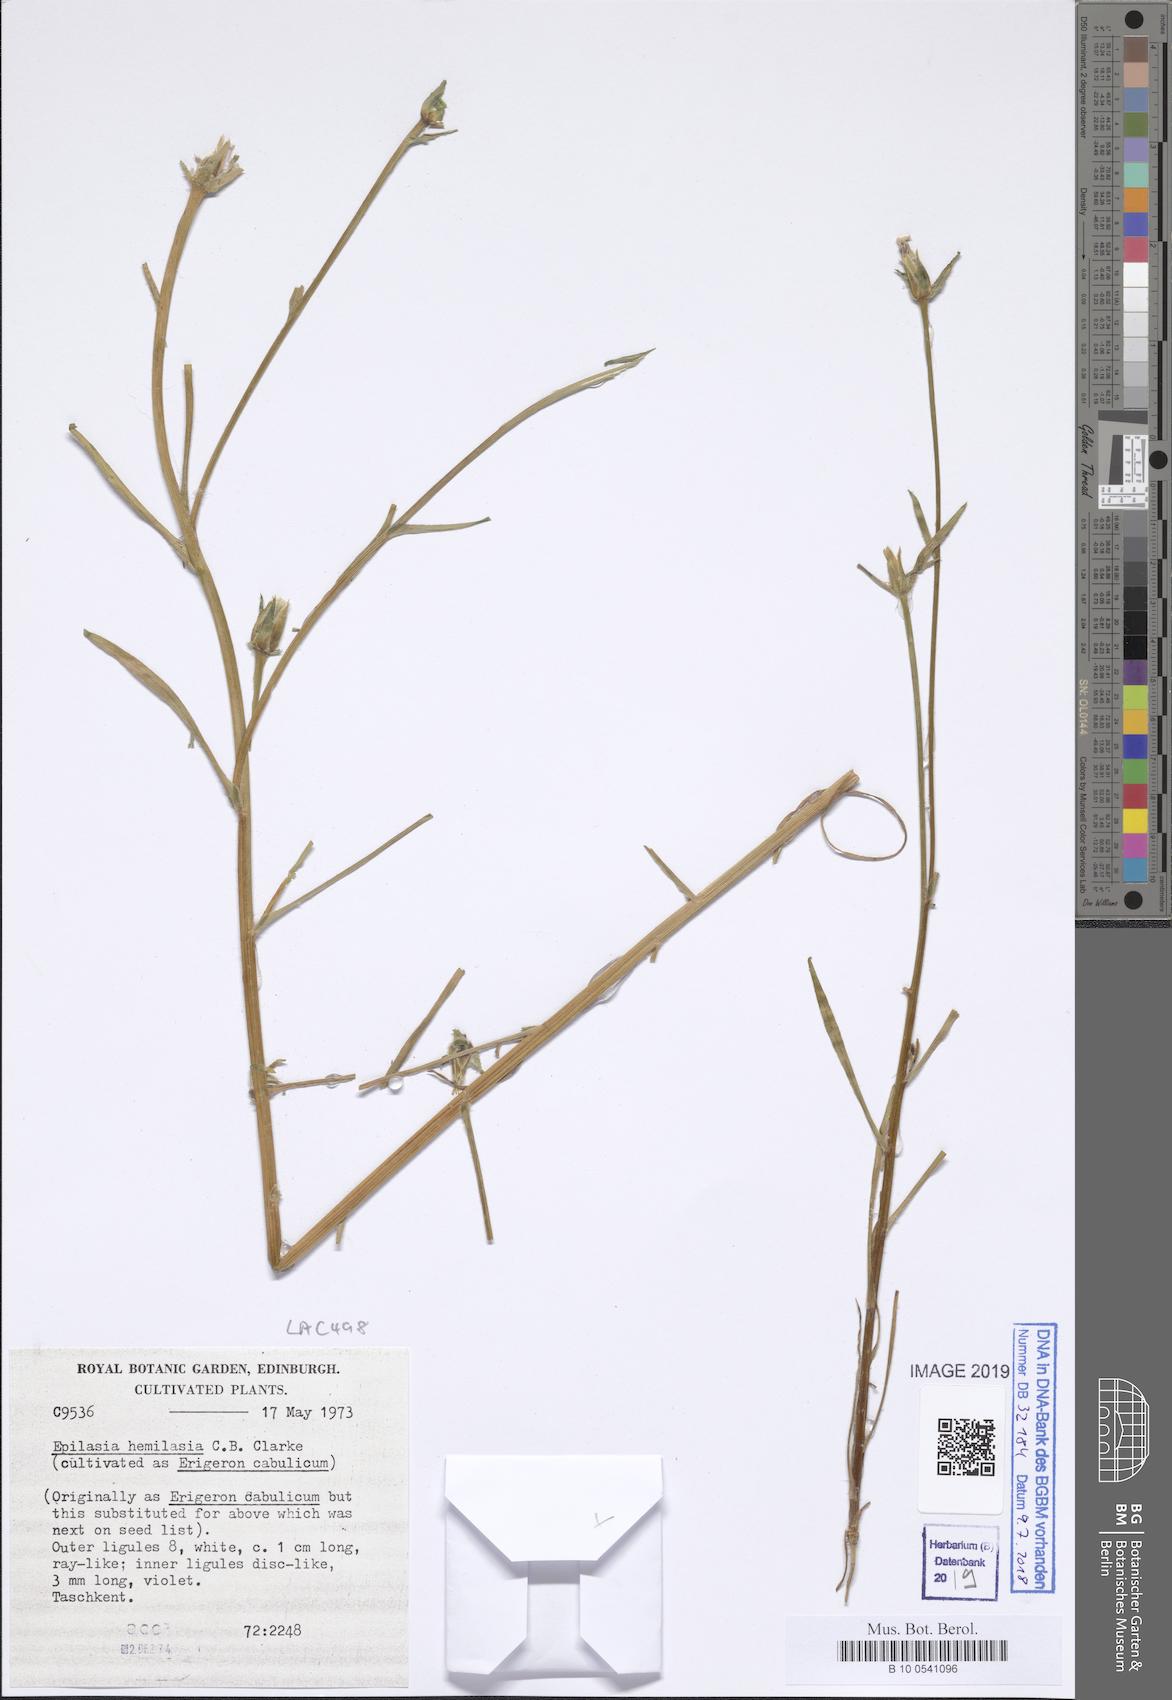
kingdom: Plantae
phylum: Tracheophyta
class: Magnoliopsida
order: Asterales
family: Asteraceae
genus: Epilasia
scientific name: Epilasia hemilasia
